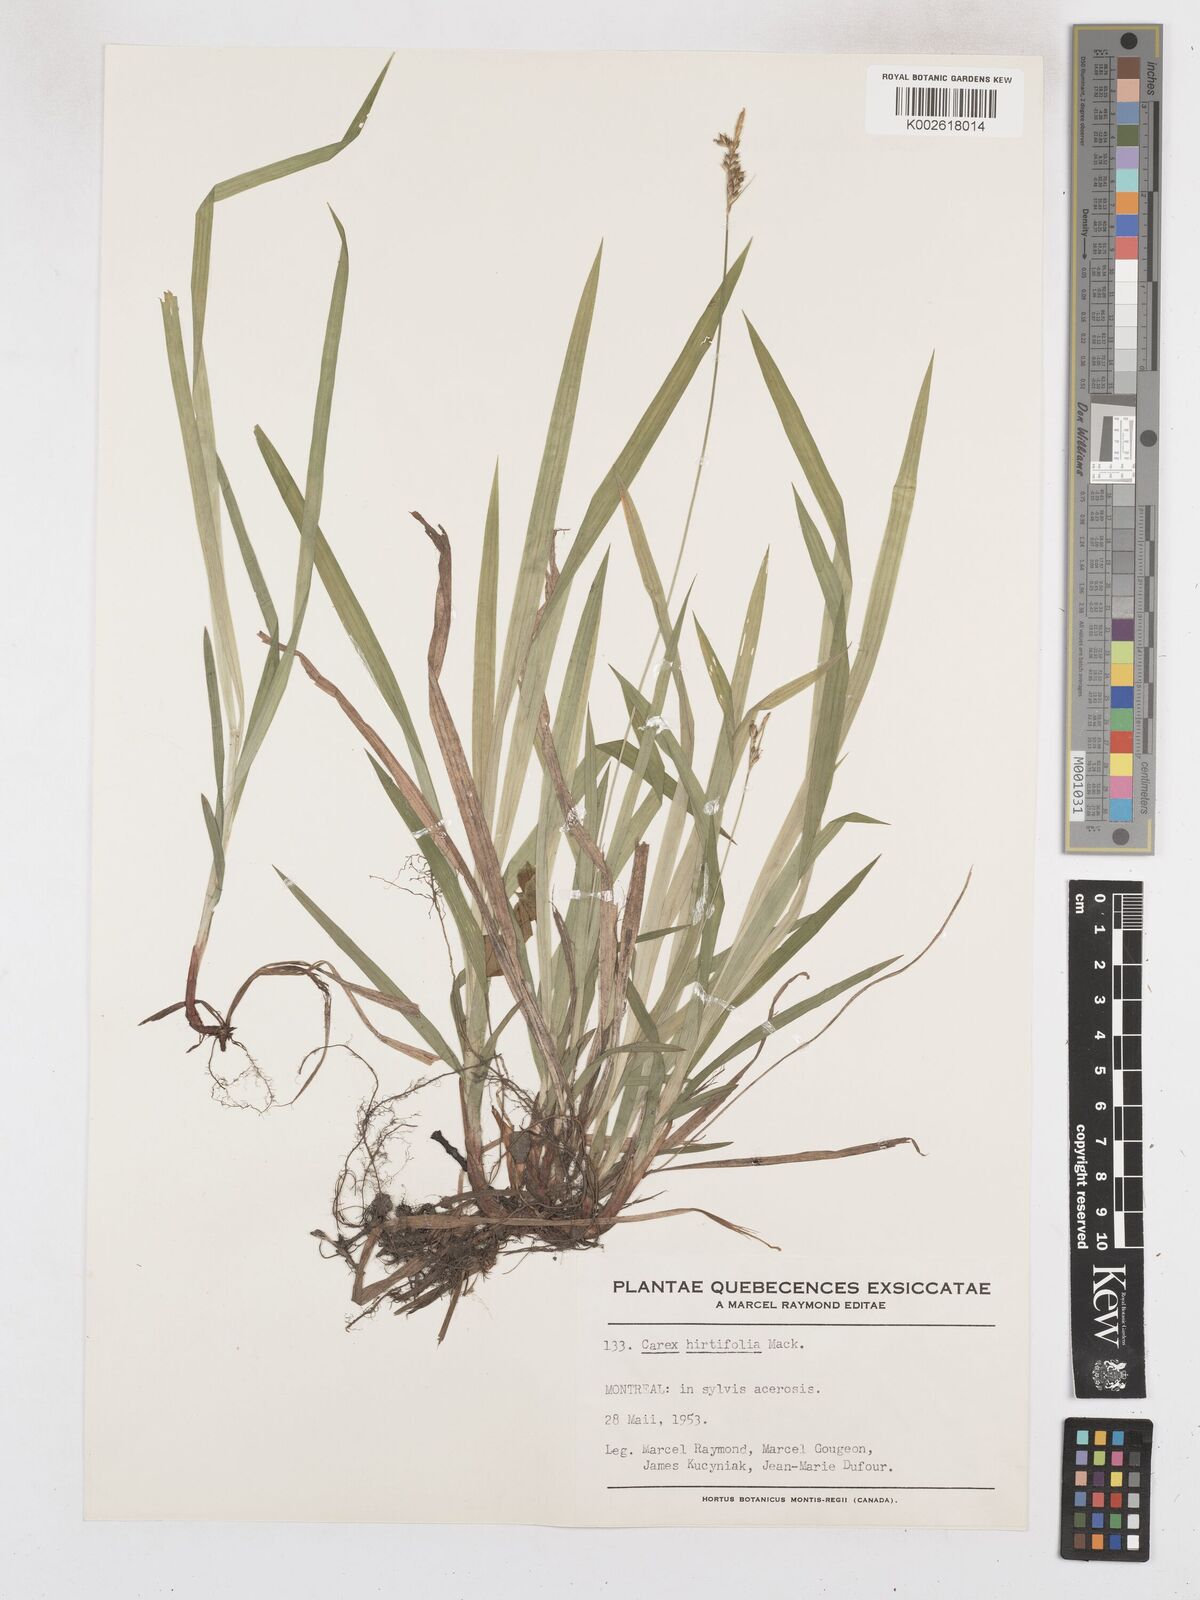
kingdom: Plantae
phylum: Tracheophyta
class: Liliopsida
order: Poales
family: Cyperaceae
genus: Carex
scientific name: Carex hirtifolia
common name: Hairy sedge
